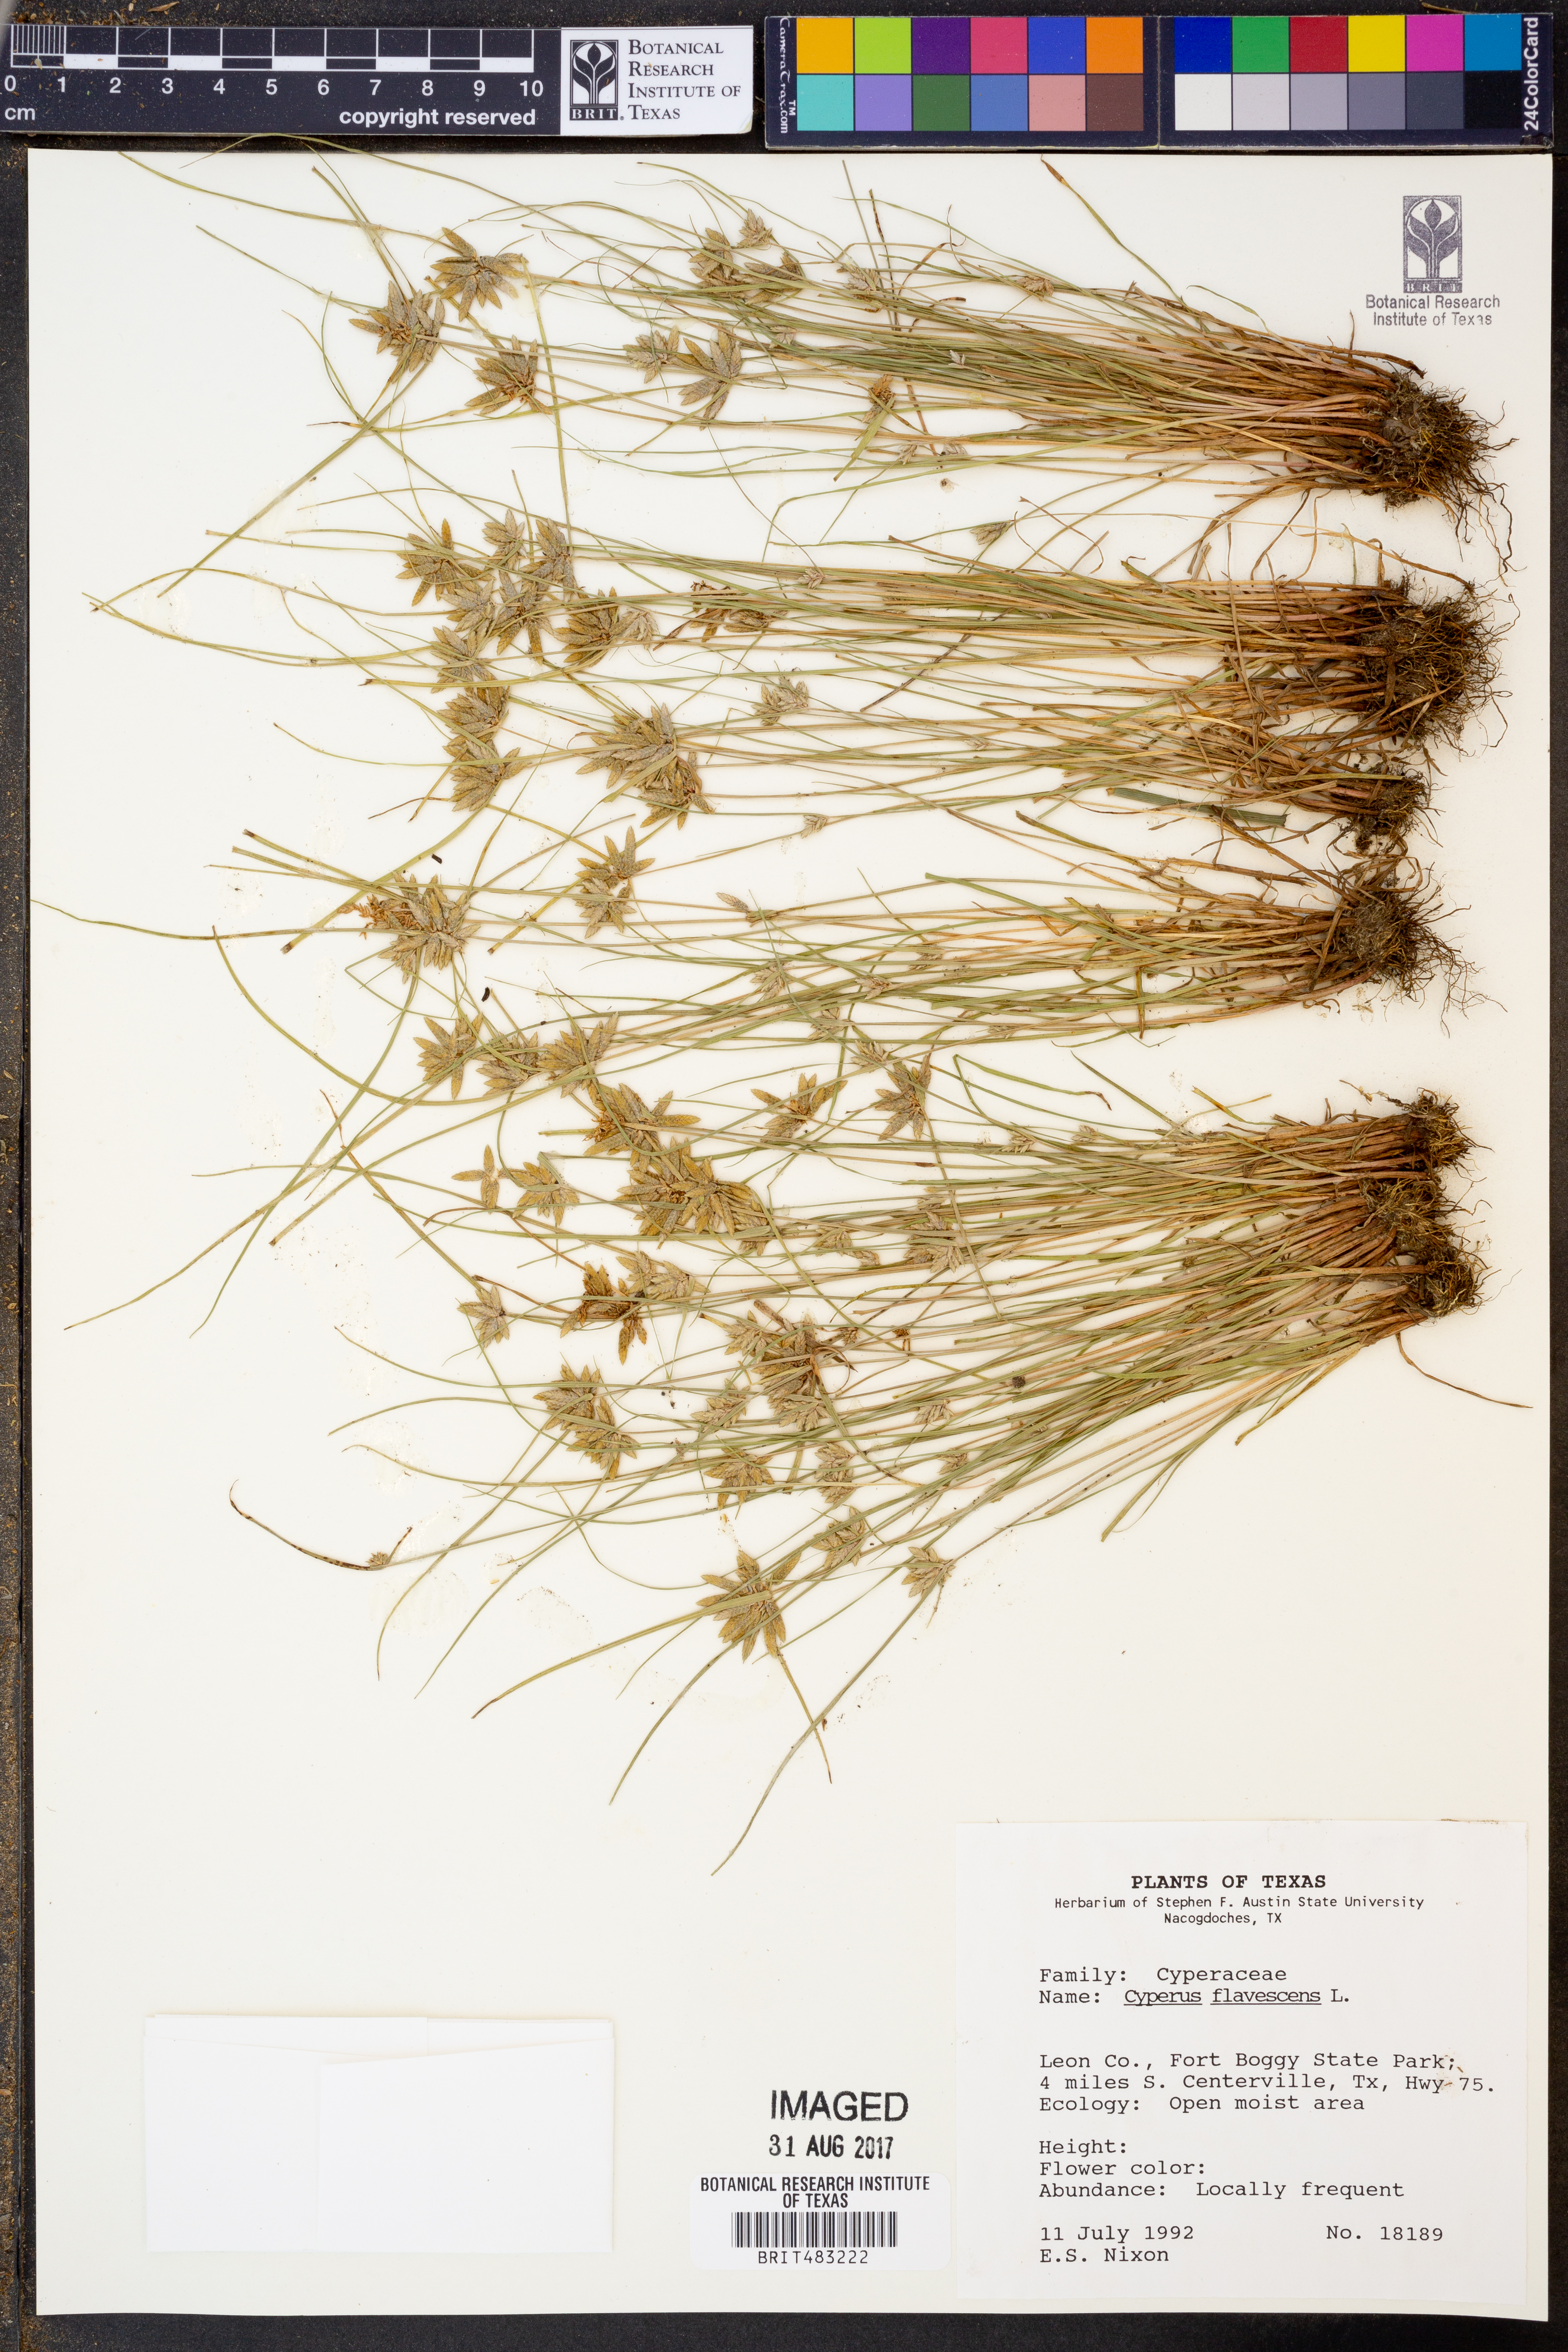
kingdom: Plantae
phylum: Tracheophyta
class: Liliopsida
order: Poales
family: Cyperaceae
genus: Cyperus
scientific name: Cyperus flavescens
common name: Yellow galingale
